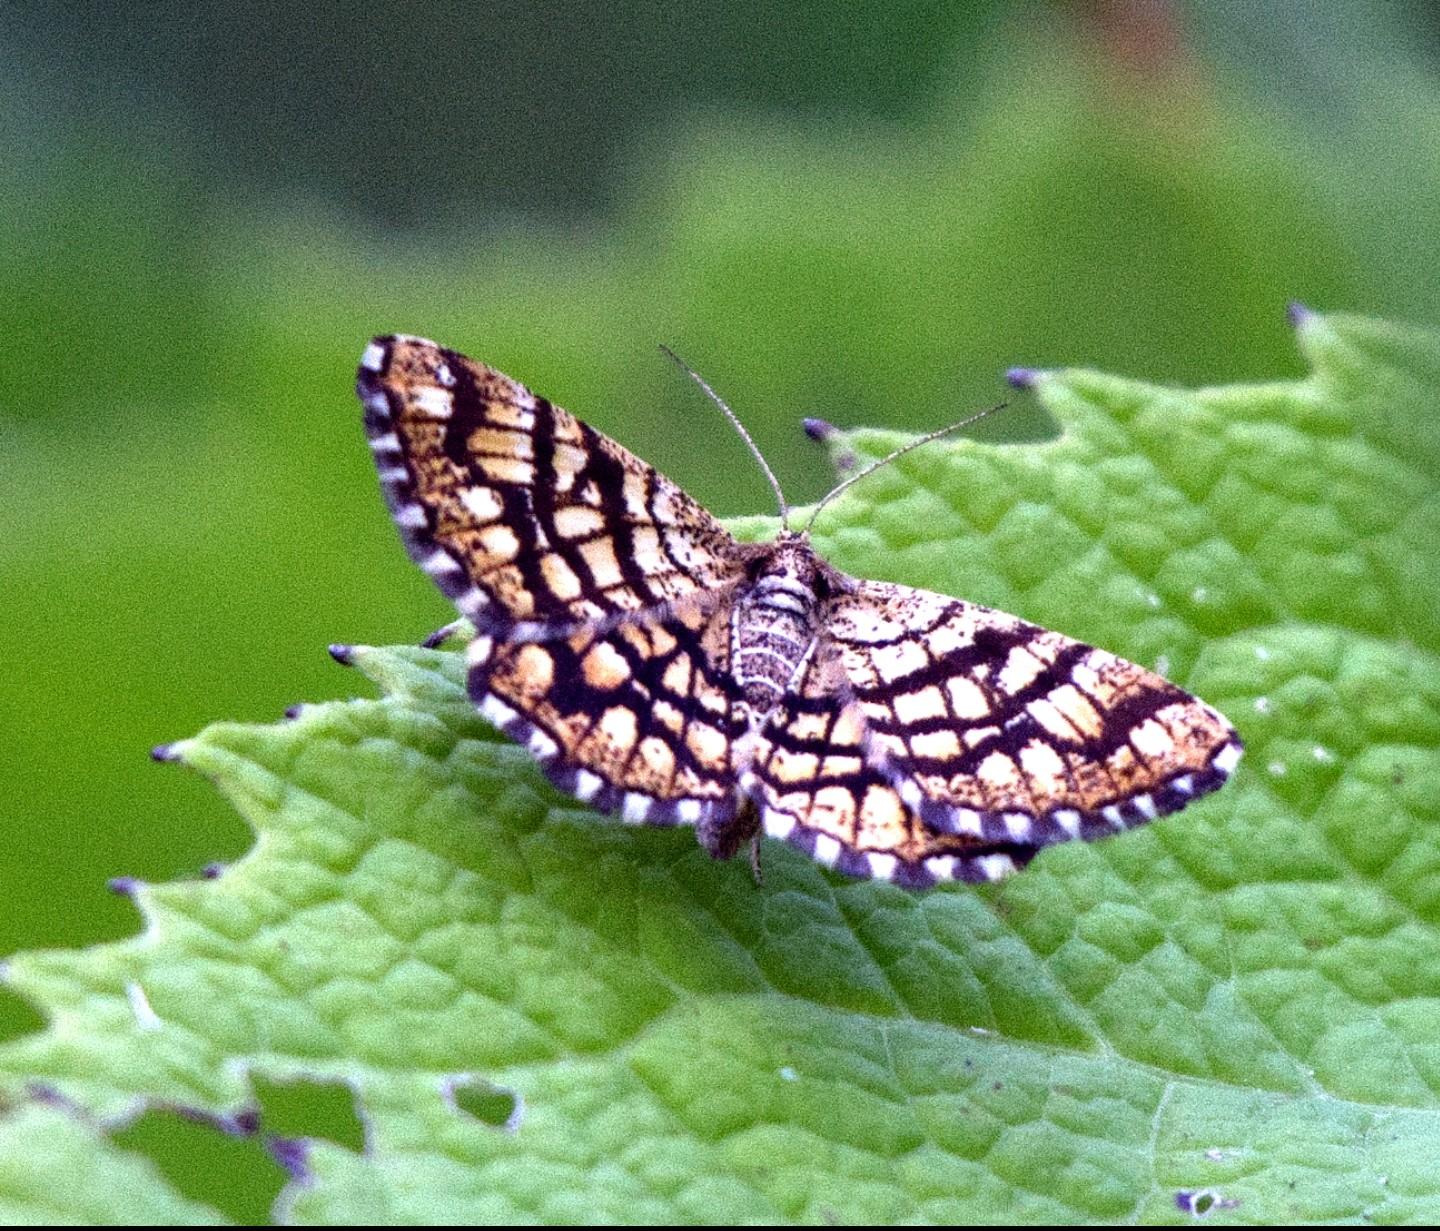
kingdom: Animalia
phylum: Arthropoda
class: Insecta
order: Lepidoptera
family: Geometridae
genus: Chiasmia
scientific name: Chiasmia clathrata
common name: Kløvermåler
